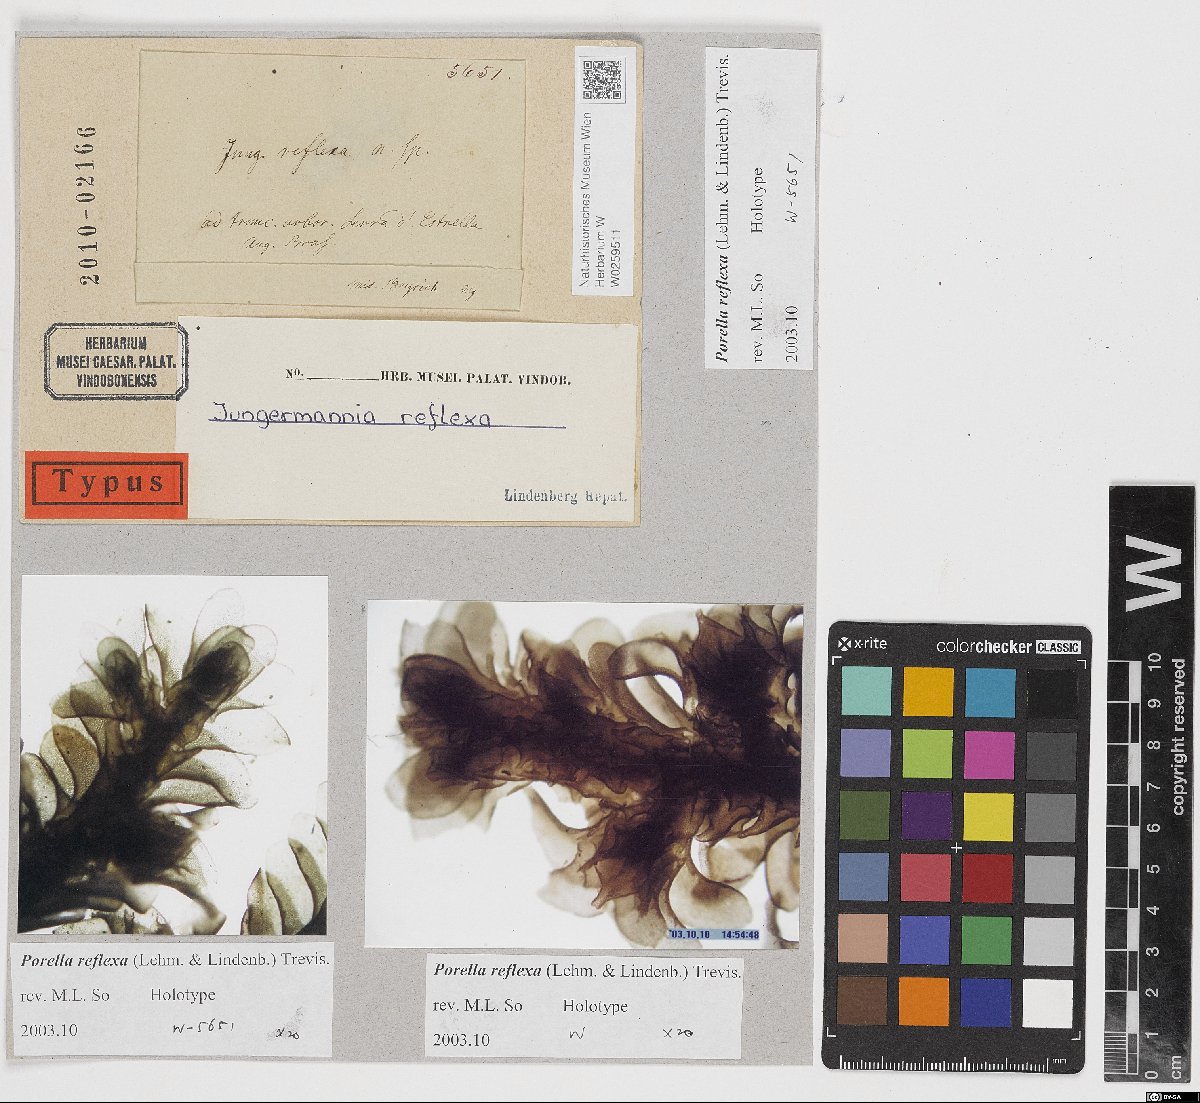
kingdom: Plantae
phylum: Marchantiophyta
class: Jungermanniopsida
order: Porellales
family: Porellaceae
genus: Porella
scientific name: Porella reflexa
